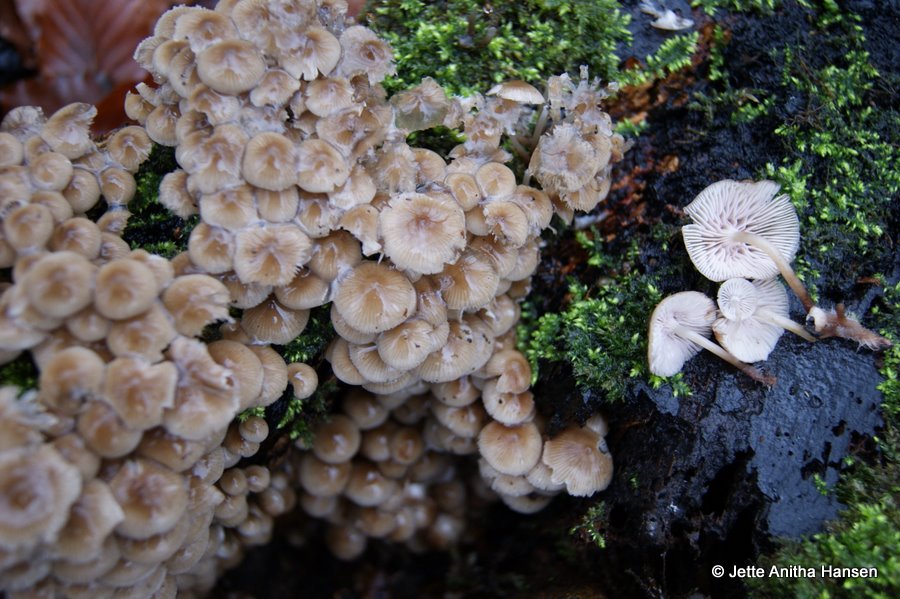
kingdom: Fungi
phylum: Basidiomycota
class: Agaricomycetes
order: Agaricales
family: Mycenaceae
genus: Mycena
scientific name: Mycena tintinnabulum
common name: vinter-huesvamp
